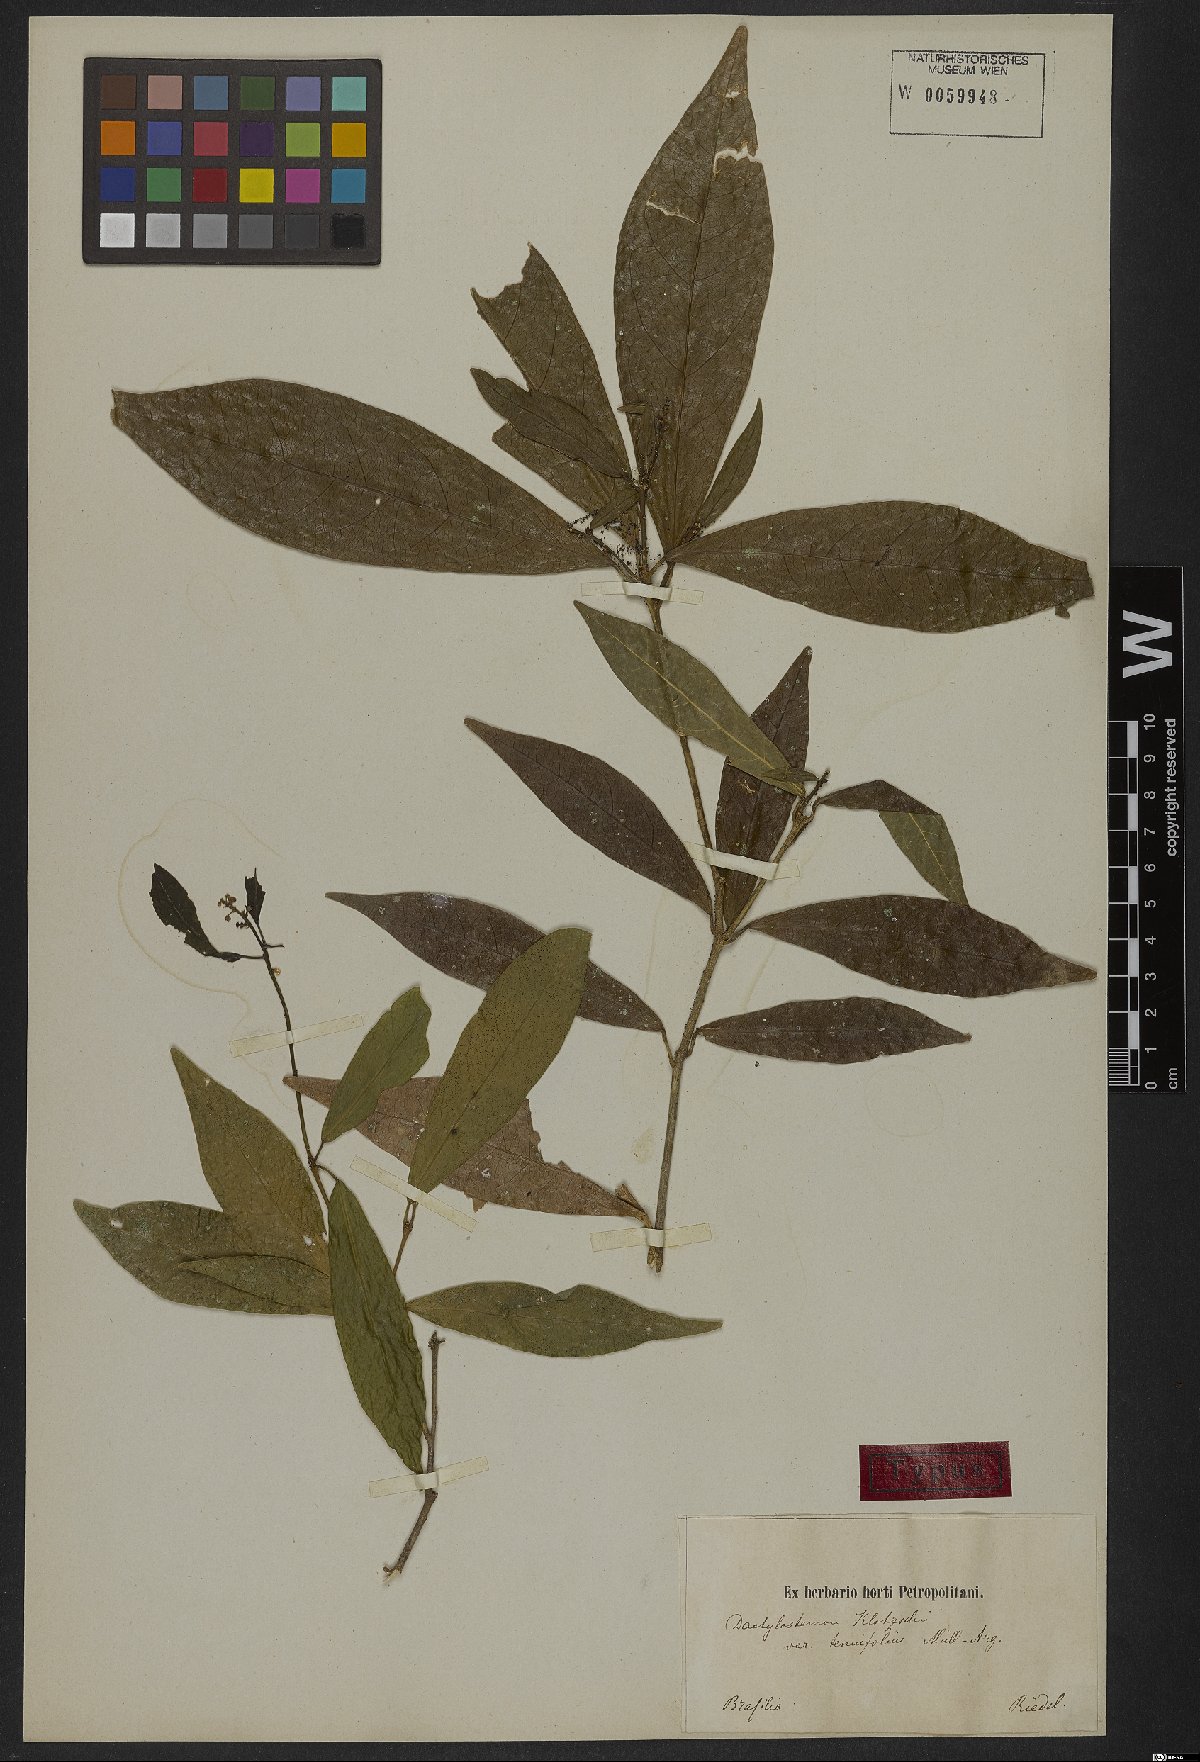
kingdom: Plantae
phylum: Tracheophyta
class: Magnoliopsida
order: Malpighiales
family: Euphorbiaceae
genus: Actinostemon
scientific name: Actinostemon klotzschii
